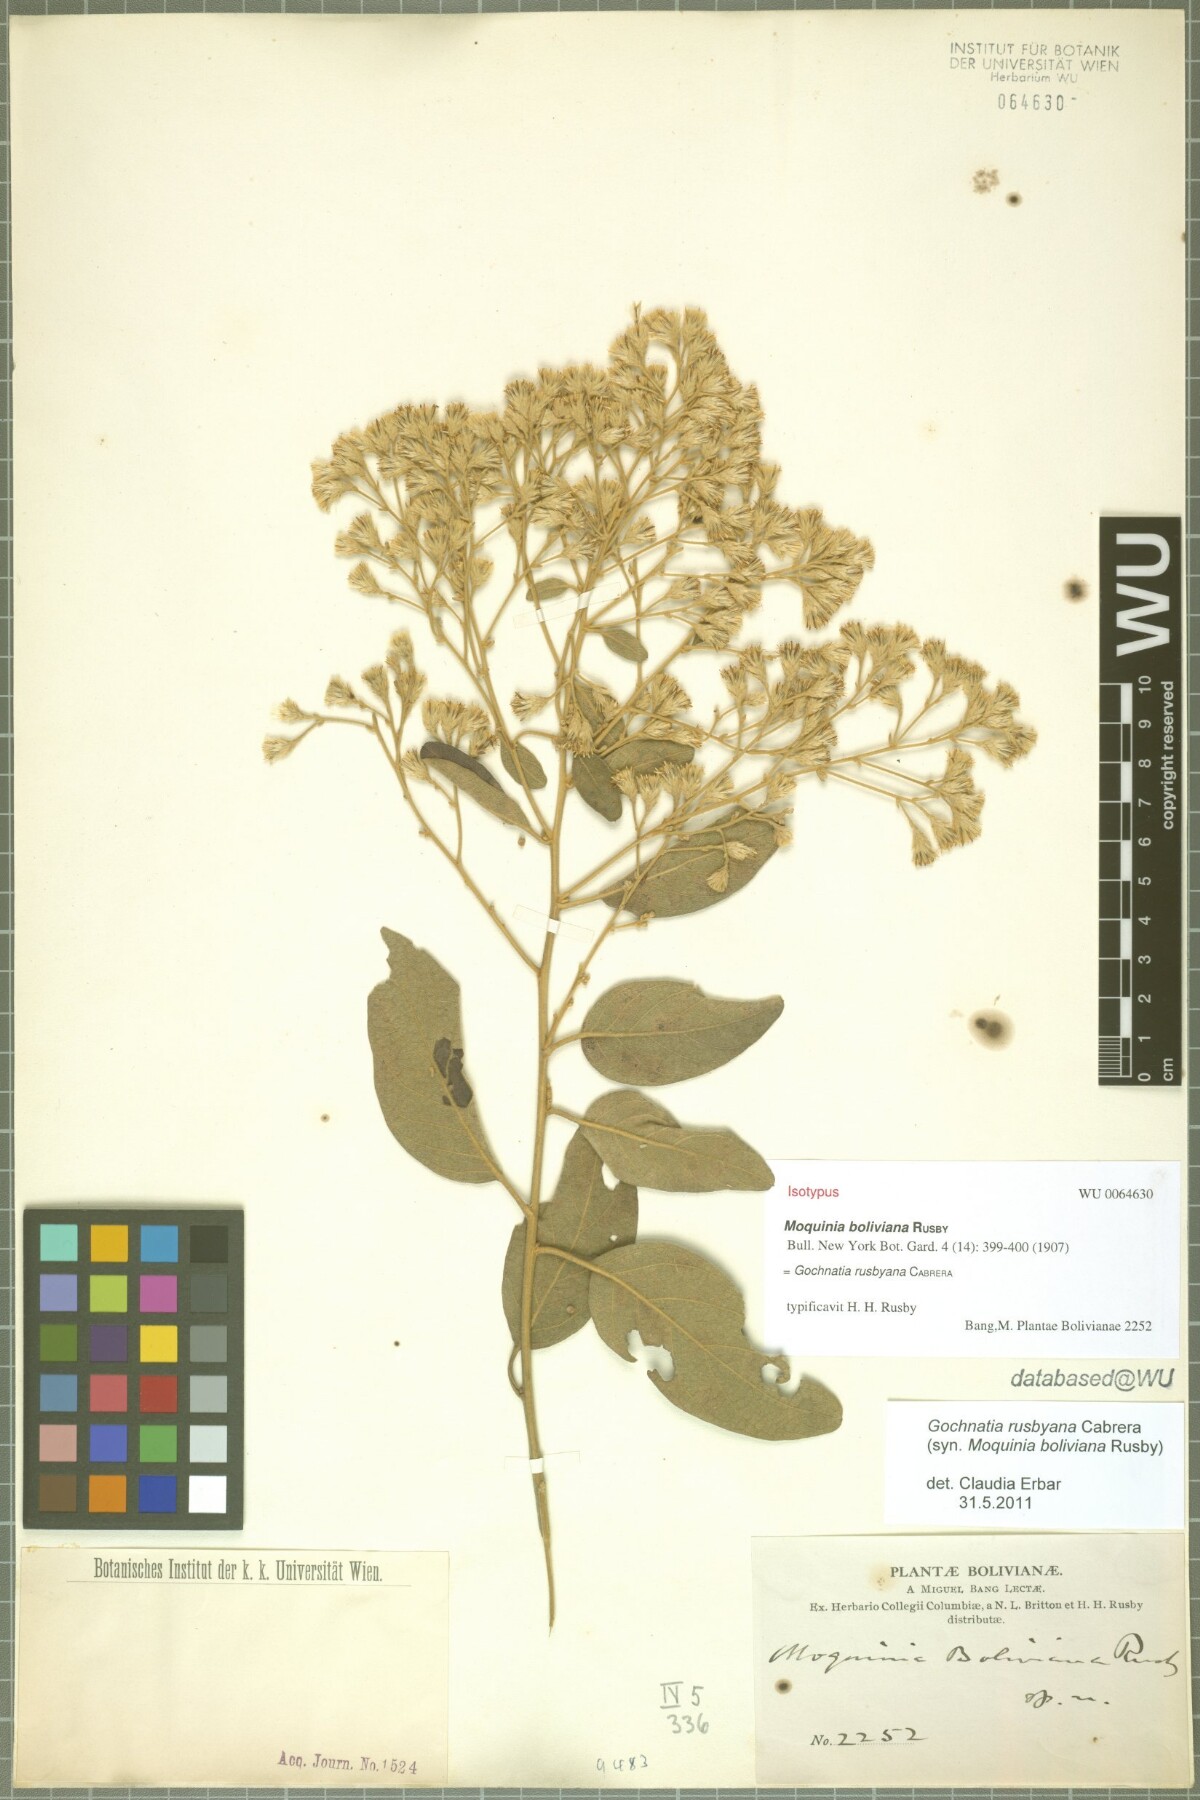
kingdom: Plantae
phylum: Tracheophyta
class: Magnoliopsida
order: Asterales
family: Asteraceae
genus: Moquiniastrum
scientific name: Moquiniastrum bolivianum
